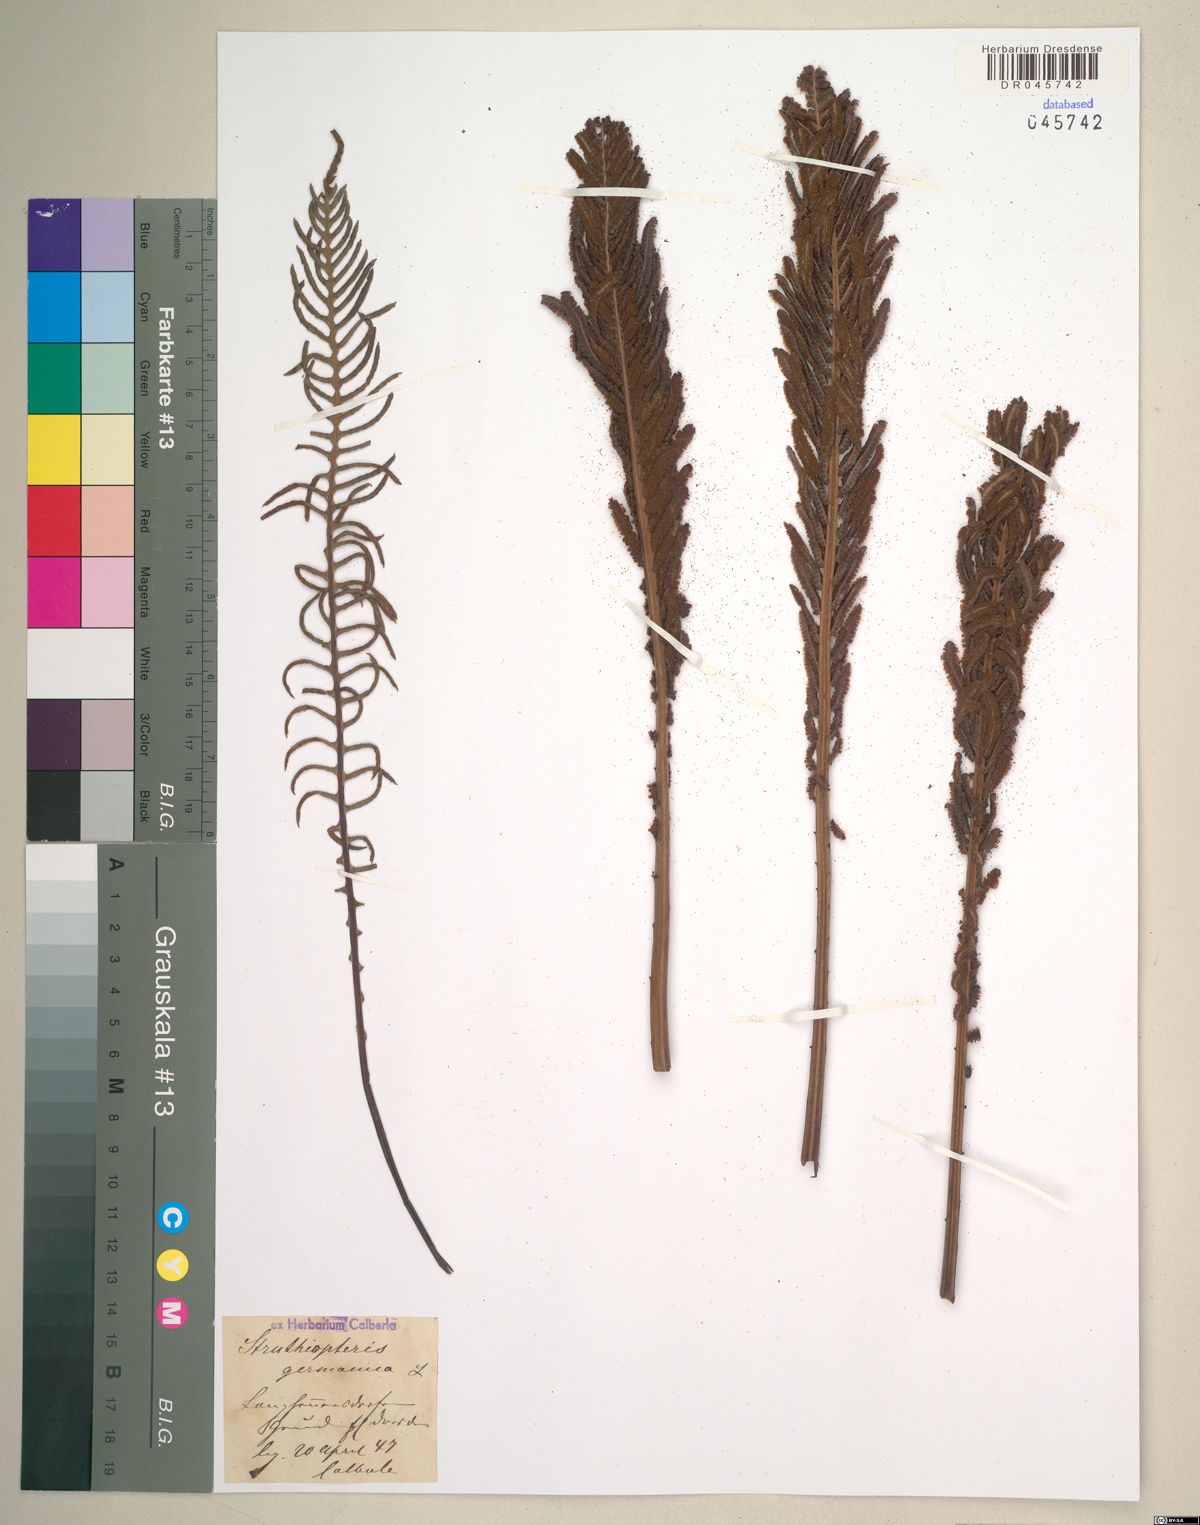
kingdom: Plantae
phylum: Tracheophyta
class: Polypodiopsida
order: Polypodiales
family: Onocleaceae
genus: Matteuccia
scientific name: Matteuccia struthiopteris
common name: Ostrich fern
